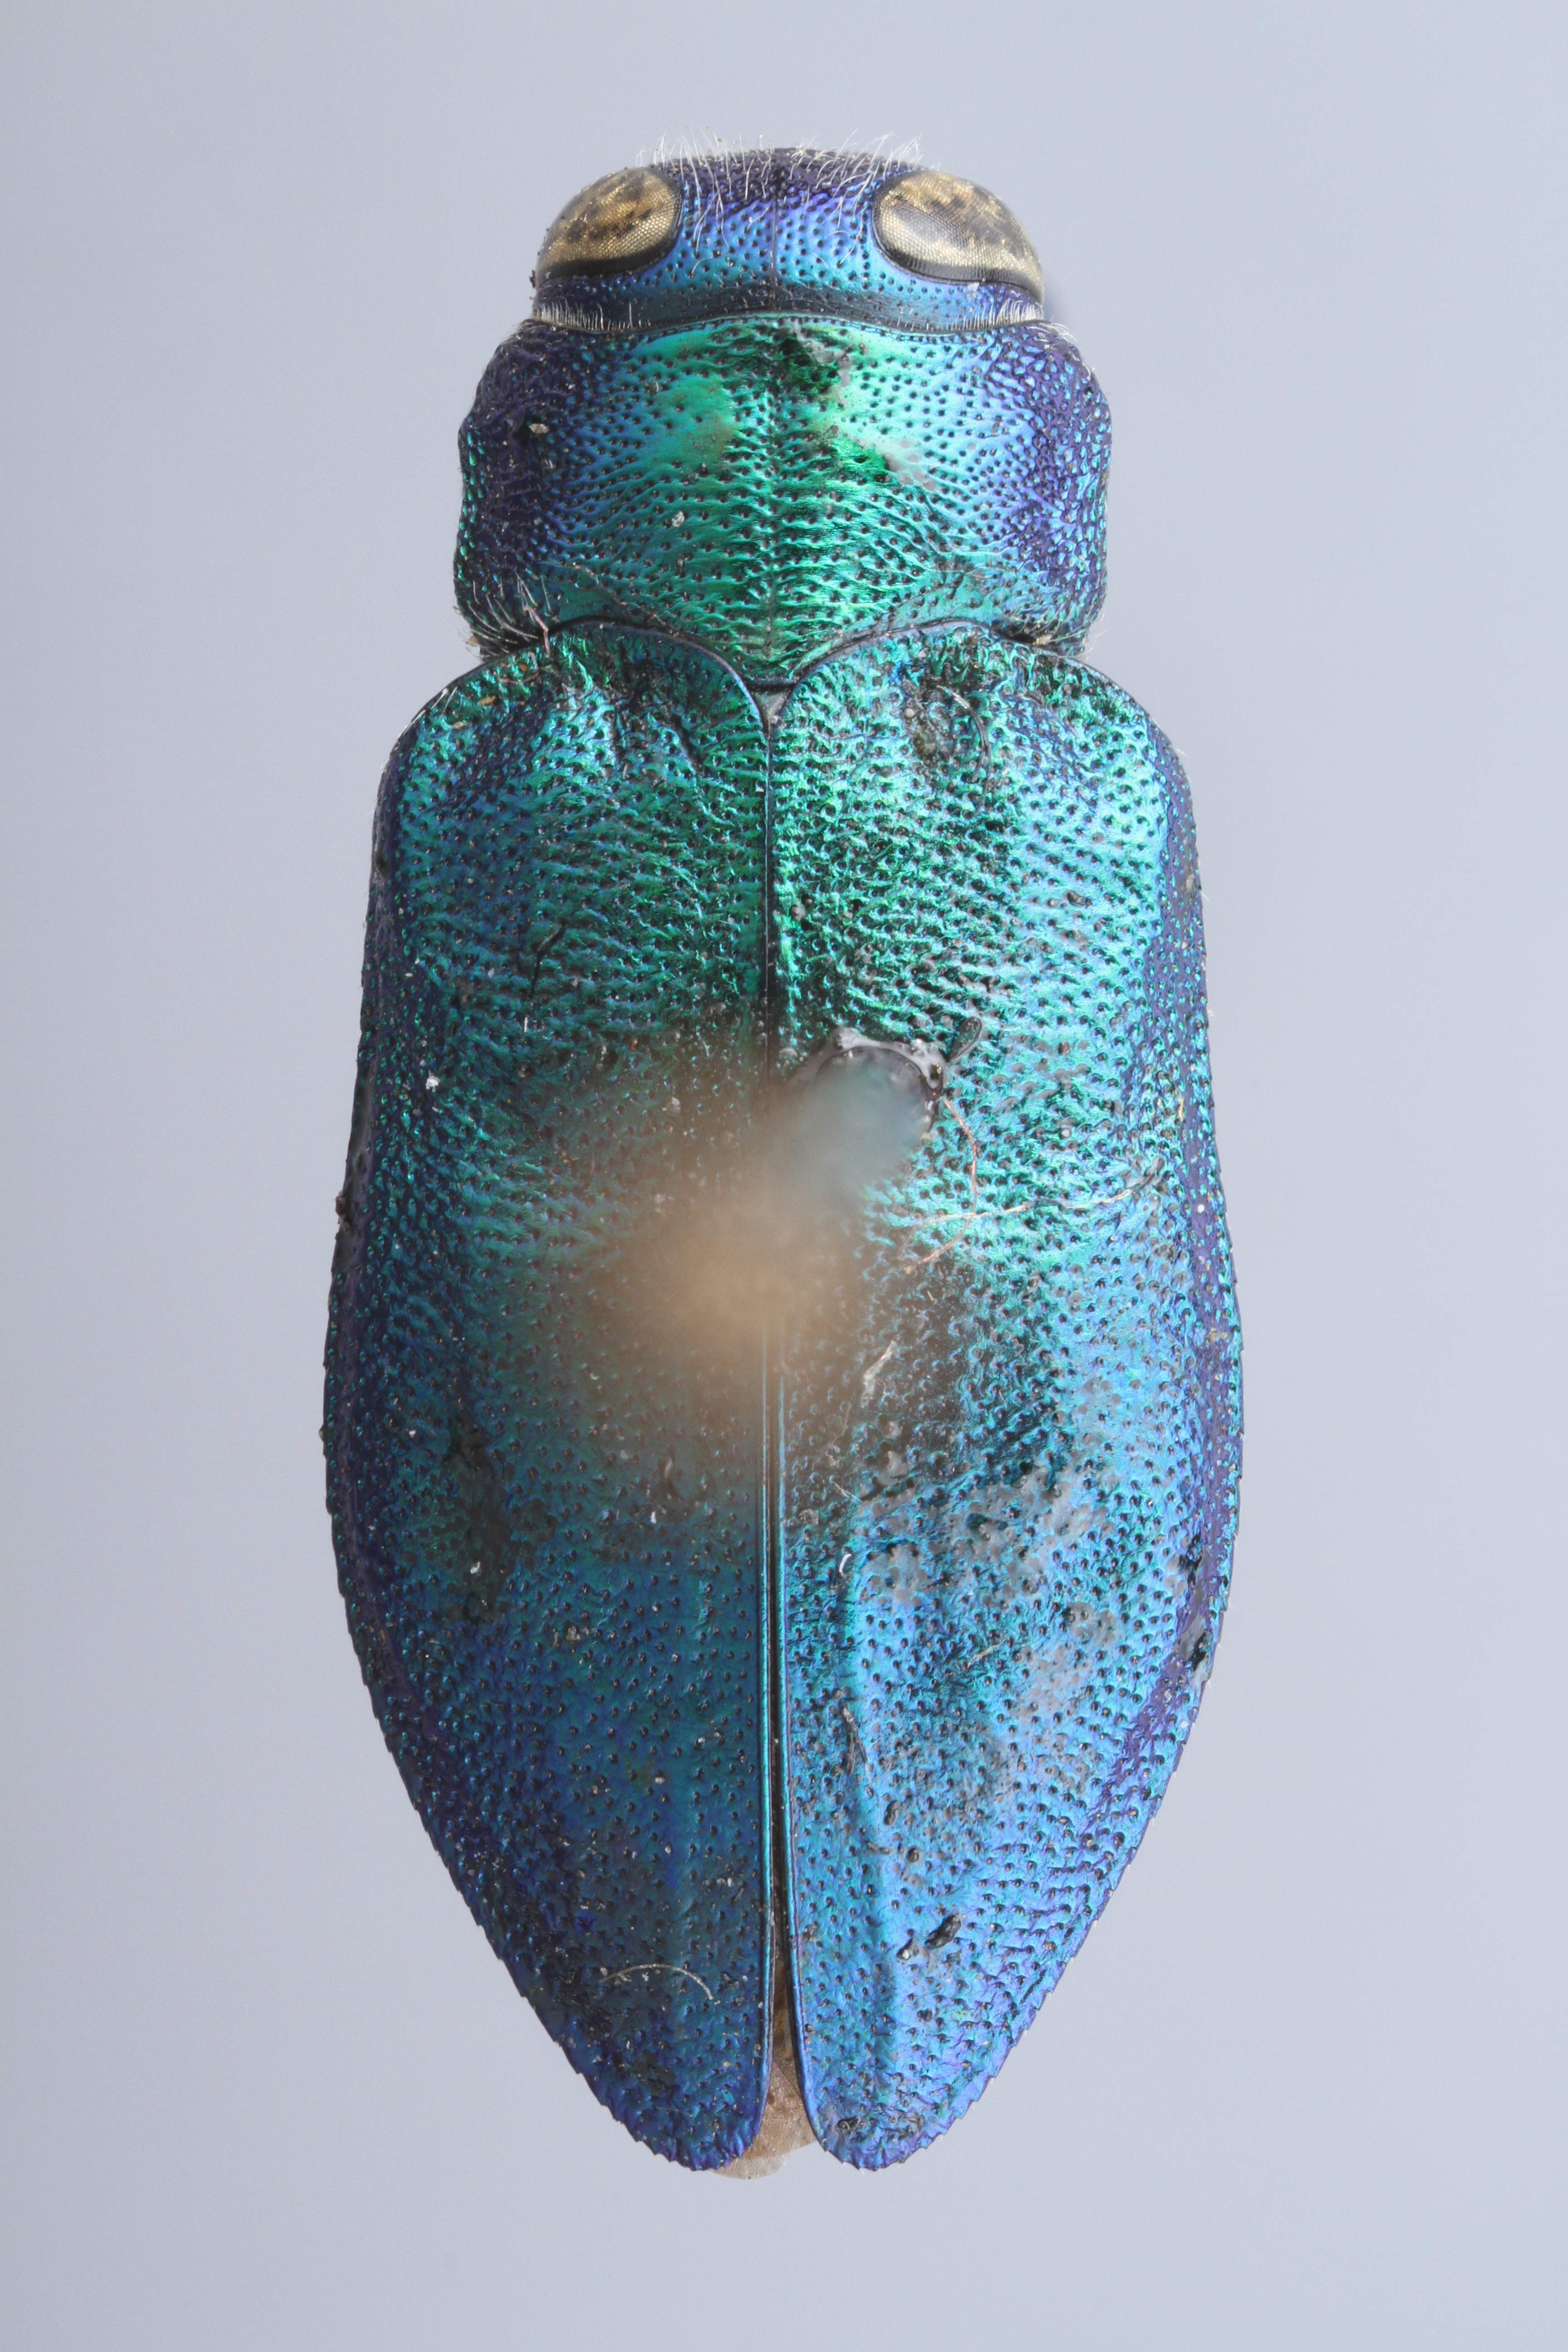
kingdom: Animalia
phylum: Arthropoda
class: Insecta
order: Coleoptera
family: Buprestidae
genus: Chrysobothris
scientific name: Chrysobothris harrisii
